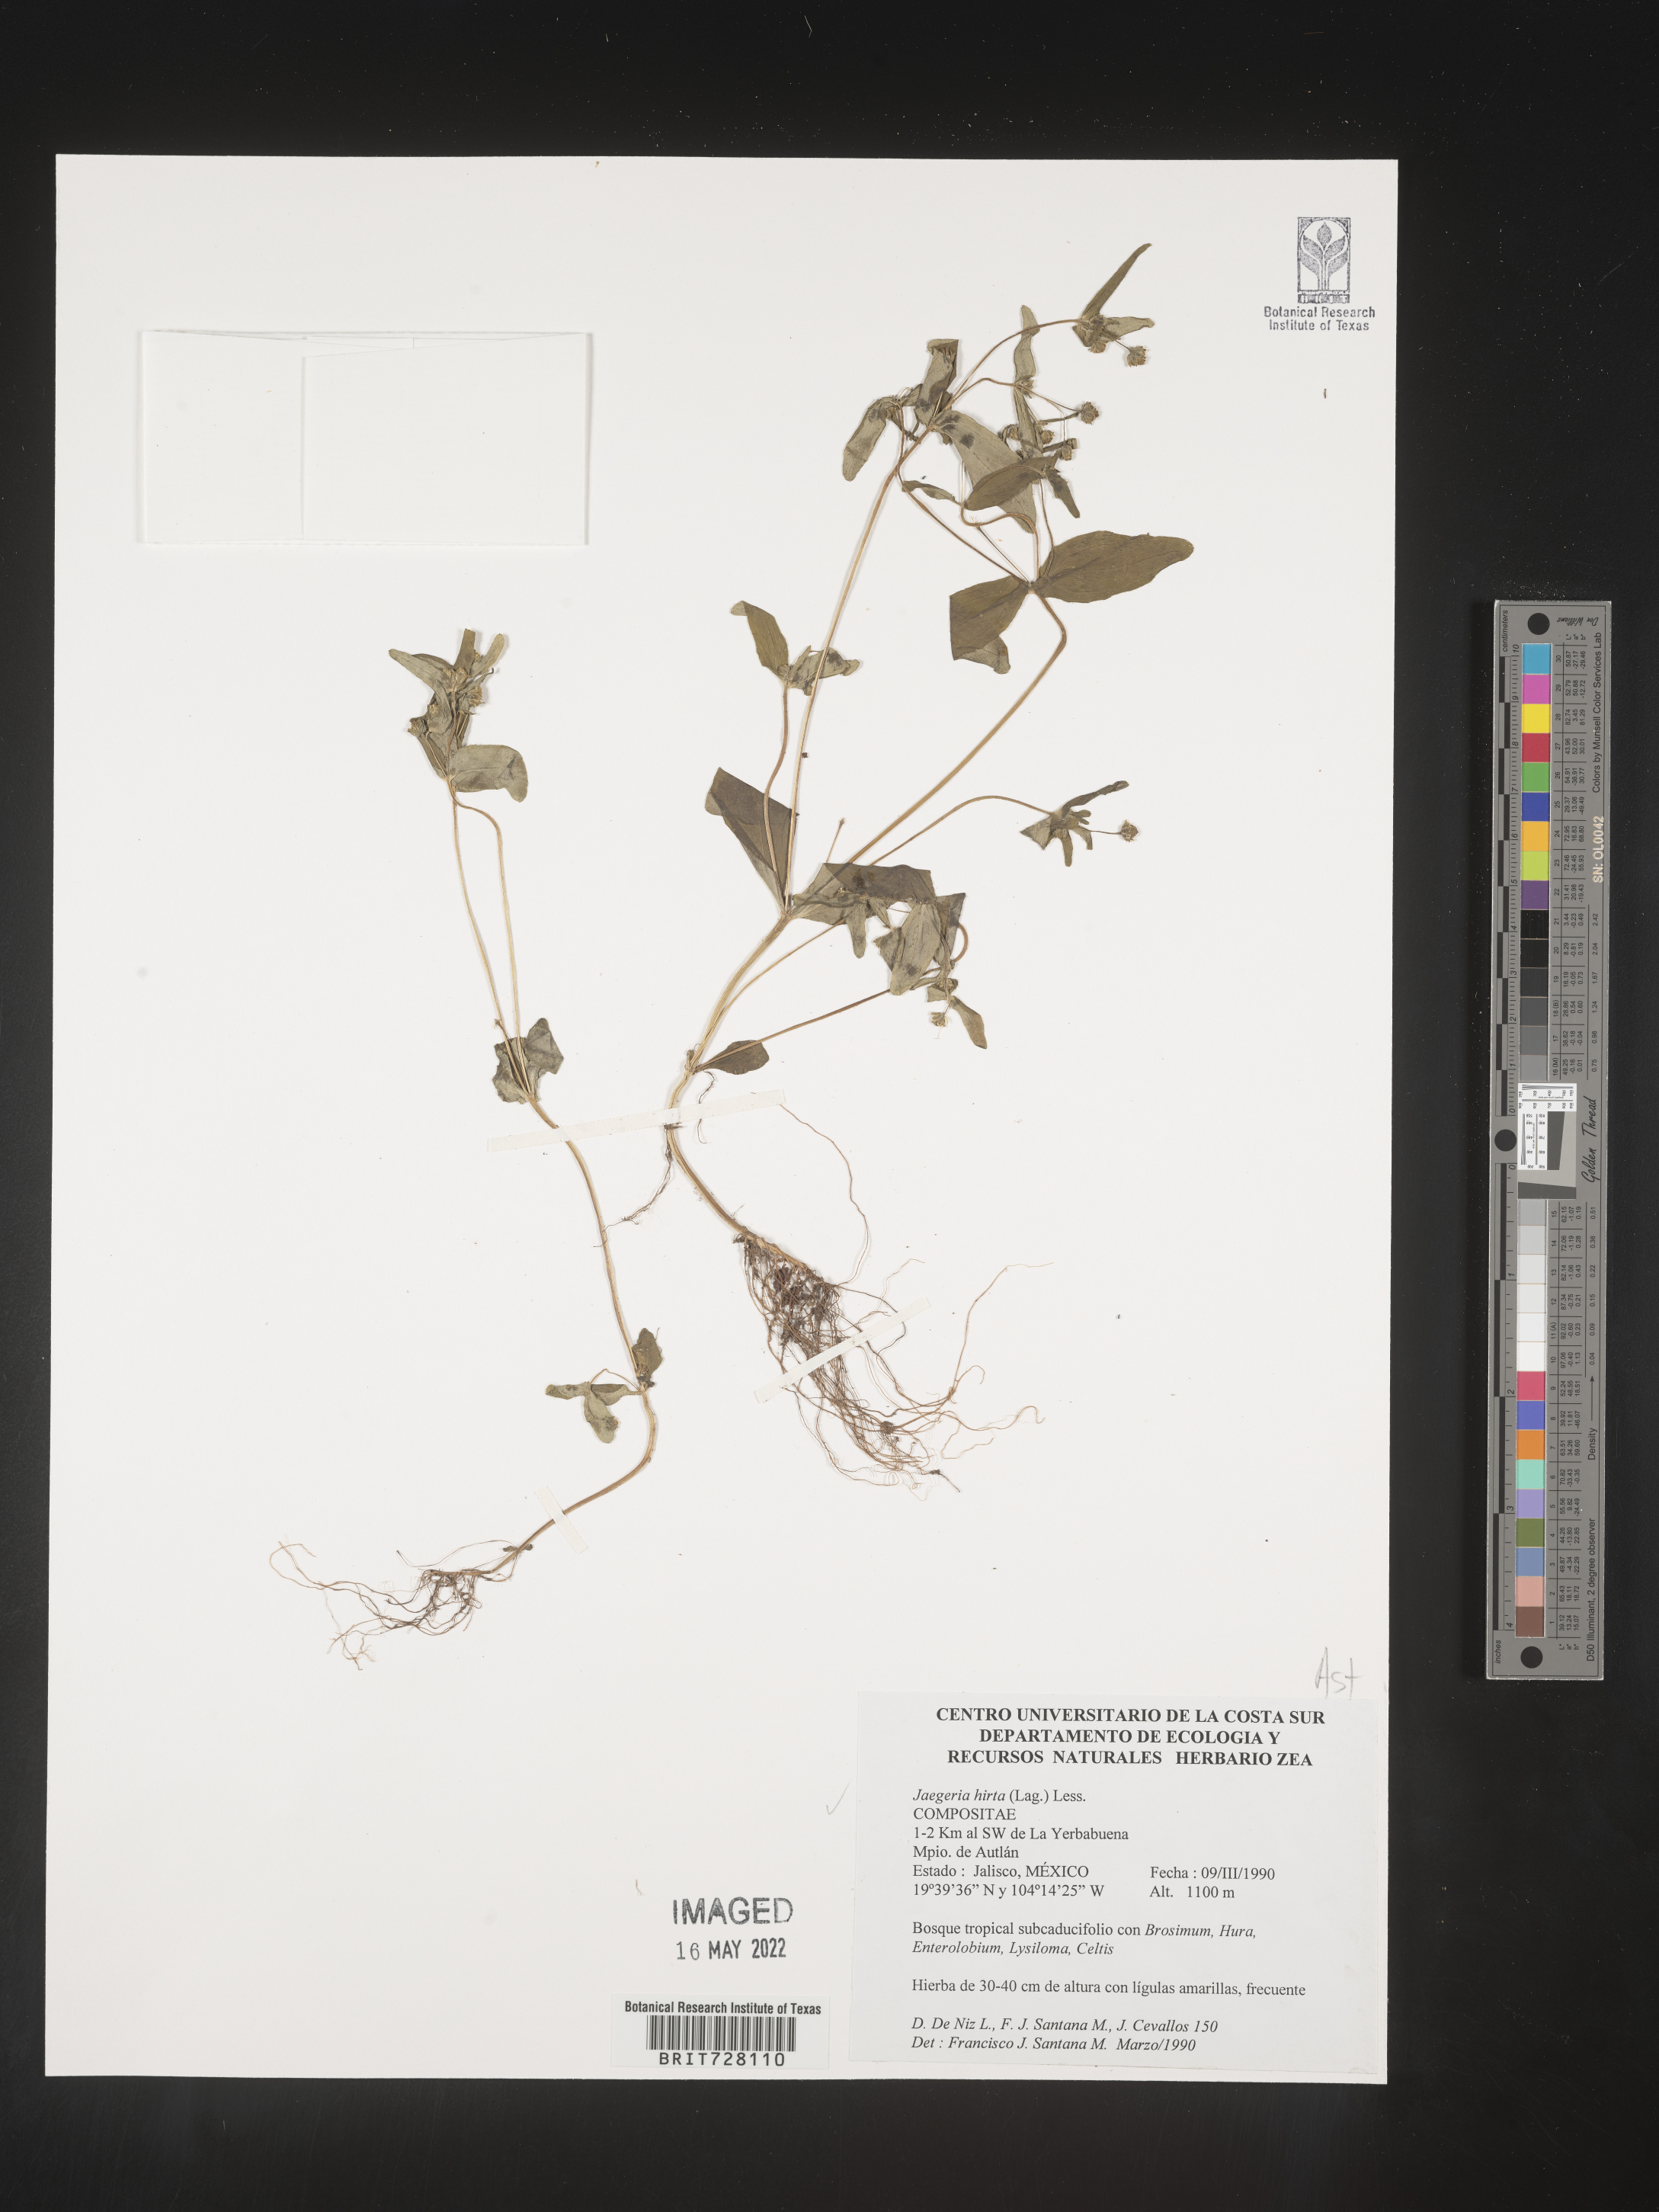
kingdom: Plantae
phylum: Tracheophyta
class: Magnoliopsida
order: Asterales
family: Asteraceae
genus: Jaegeria
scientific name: Jaegeria
